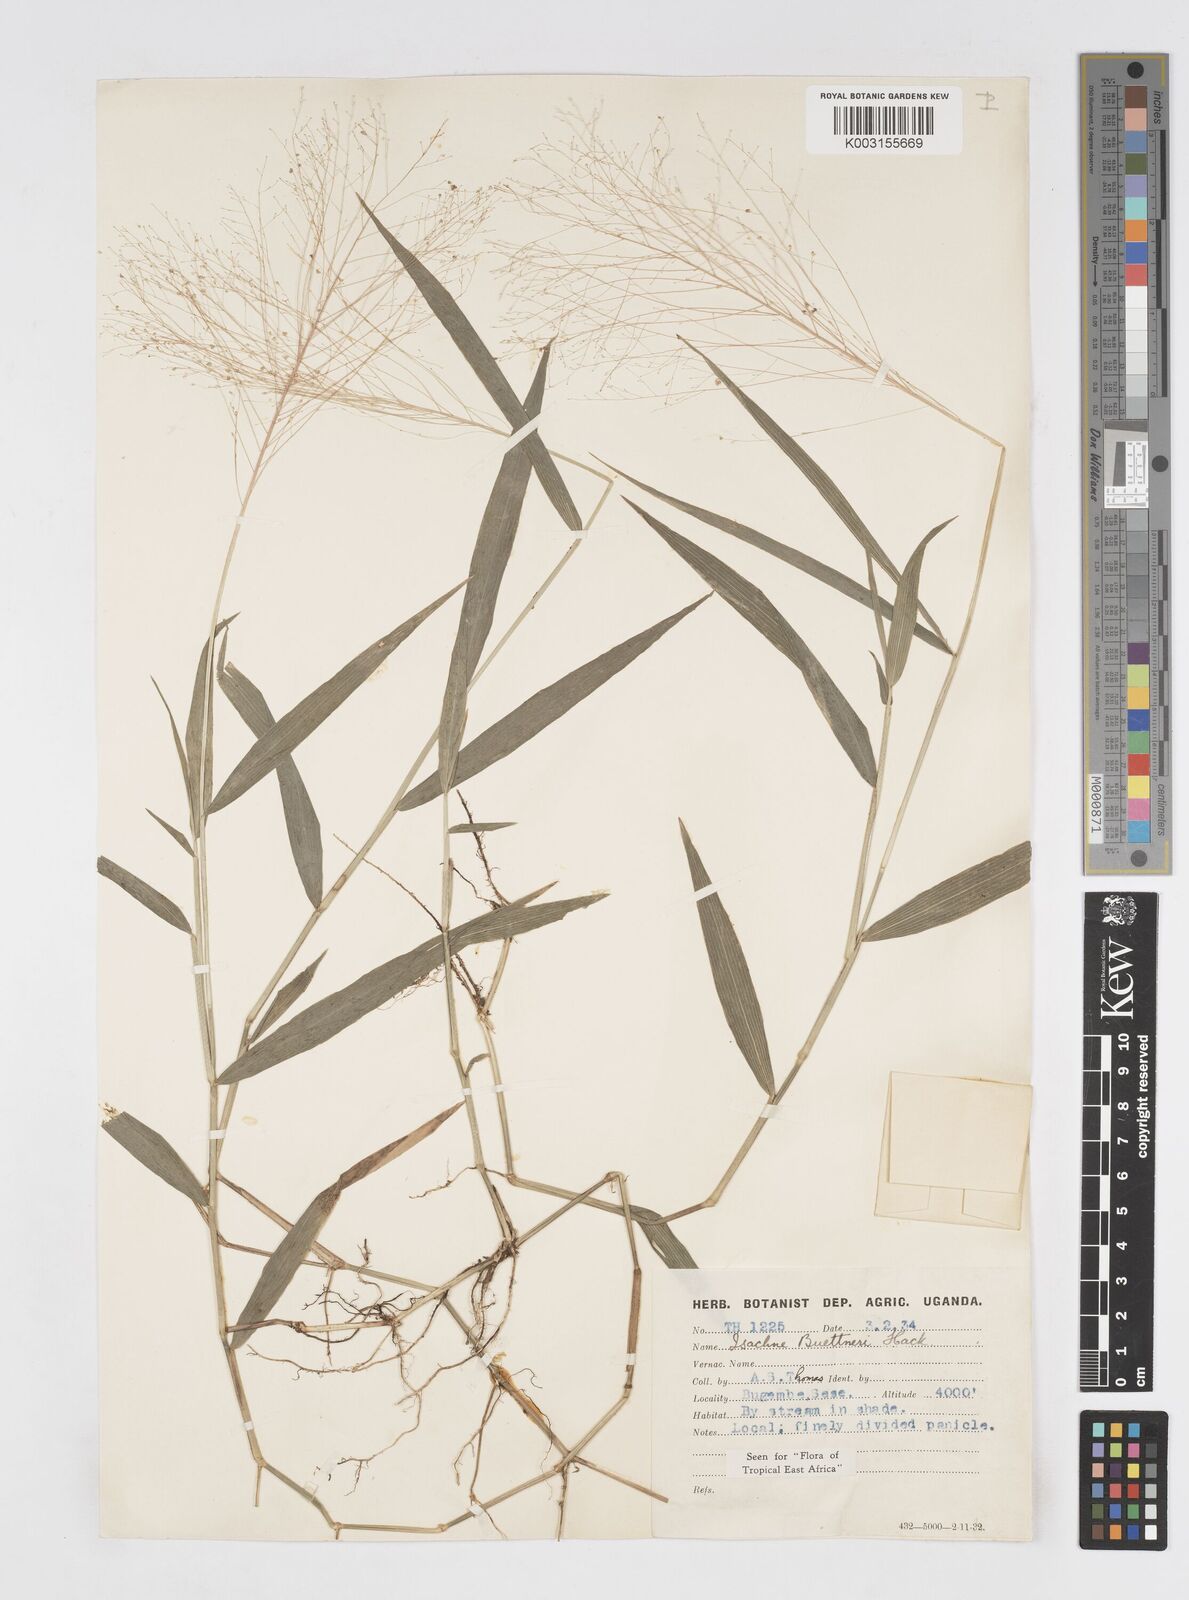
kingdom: Plantae
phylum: Tracheophyta
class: Liliopsida
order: Poales
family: Poaceae
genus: Isachne
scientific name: Isachne albens
